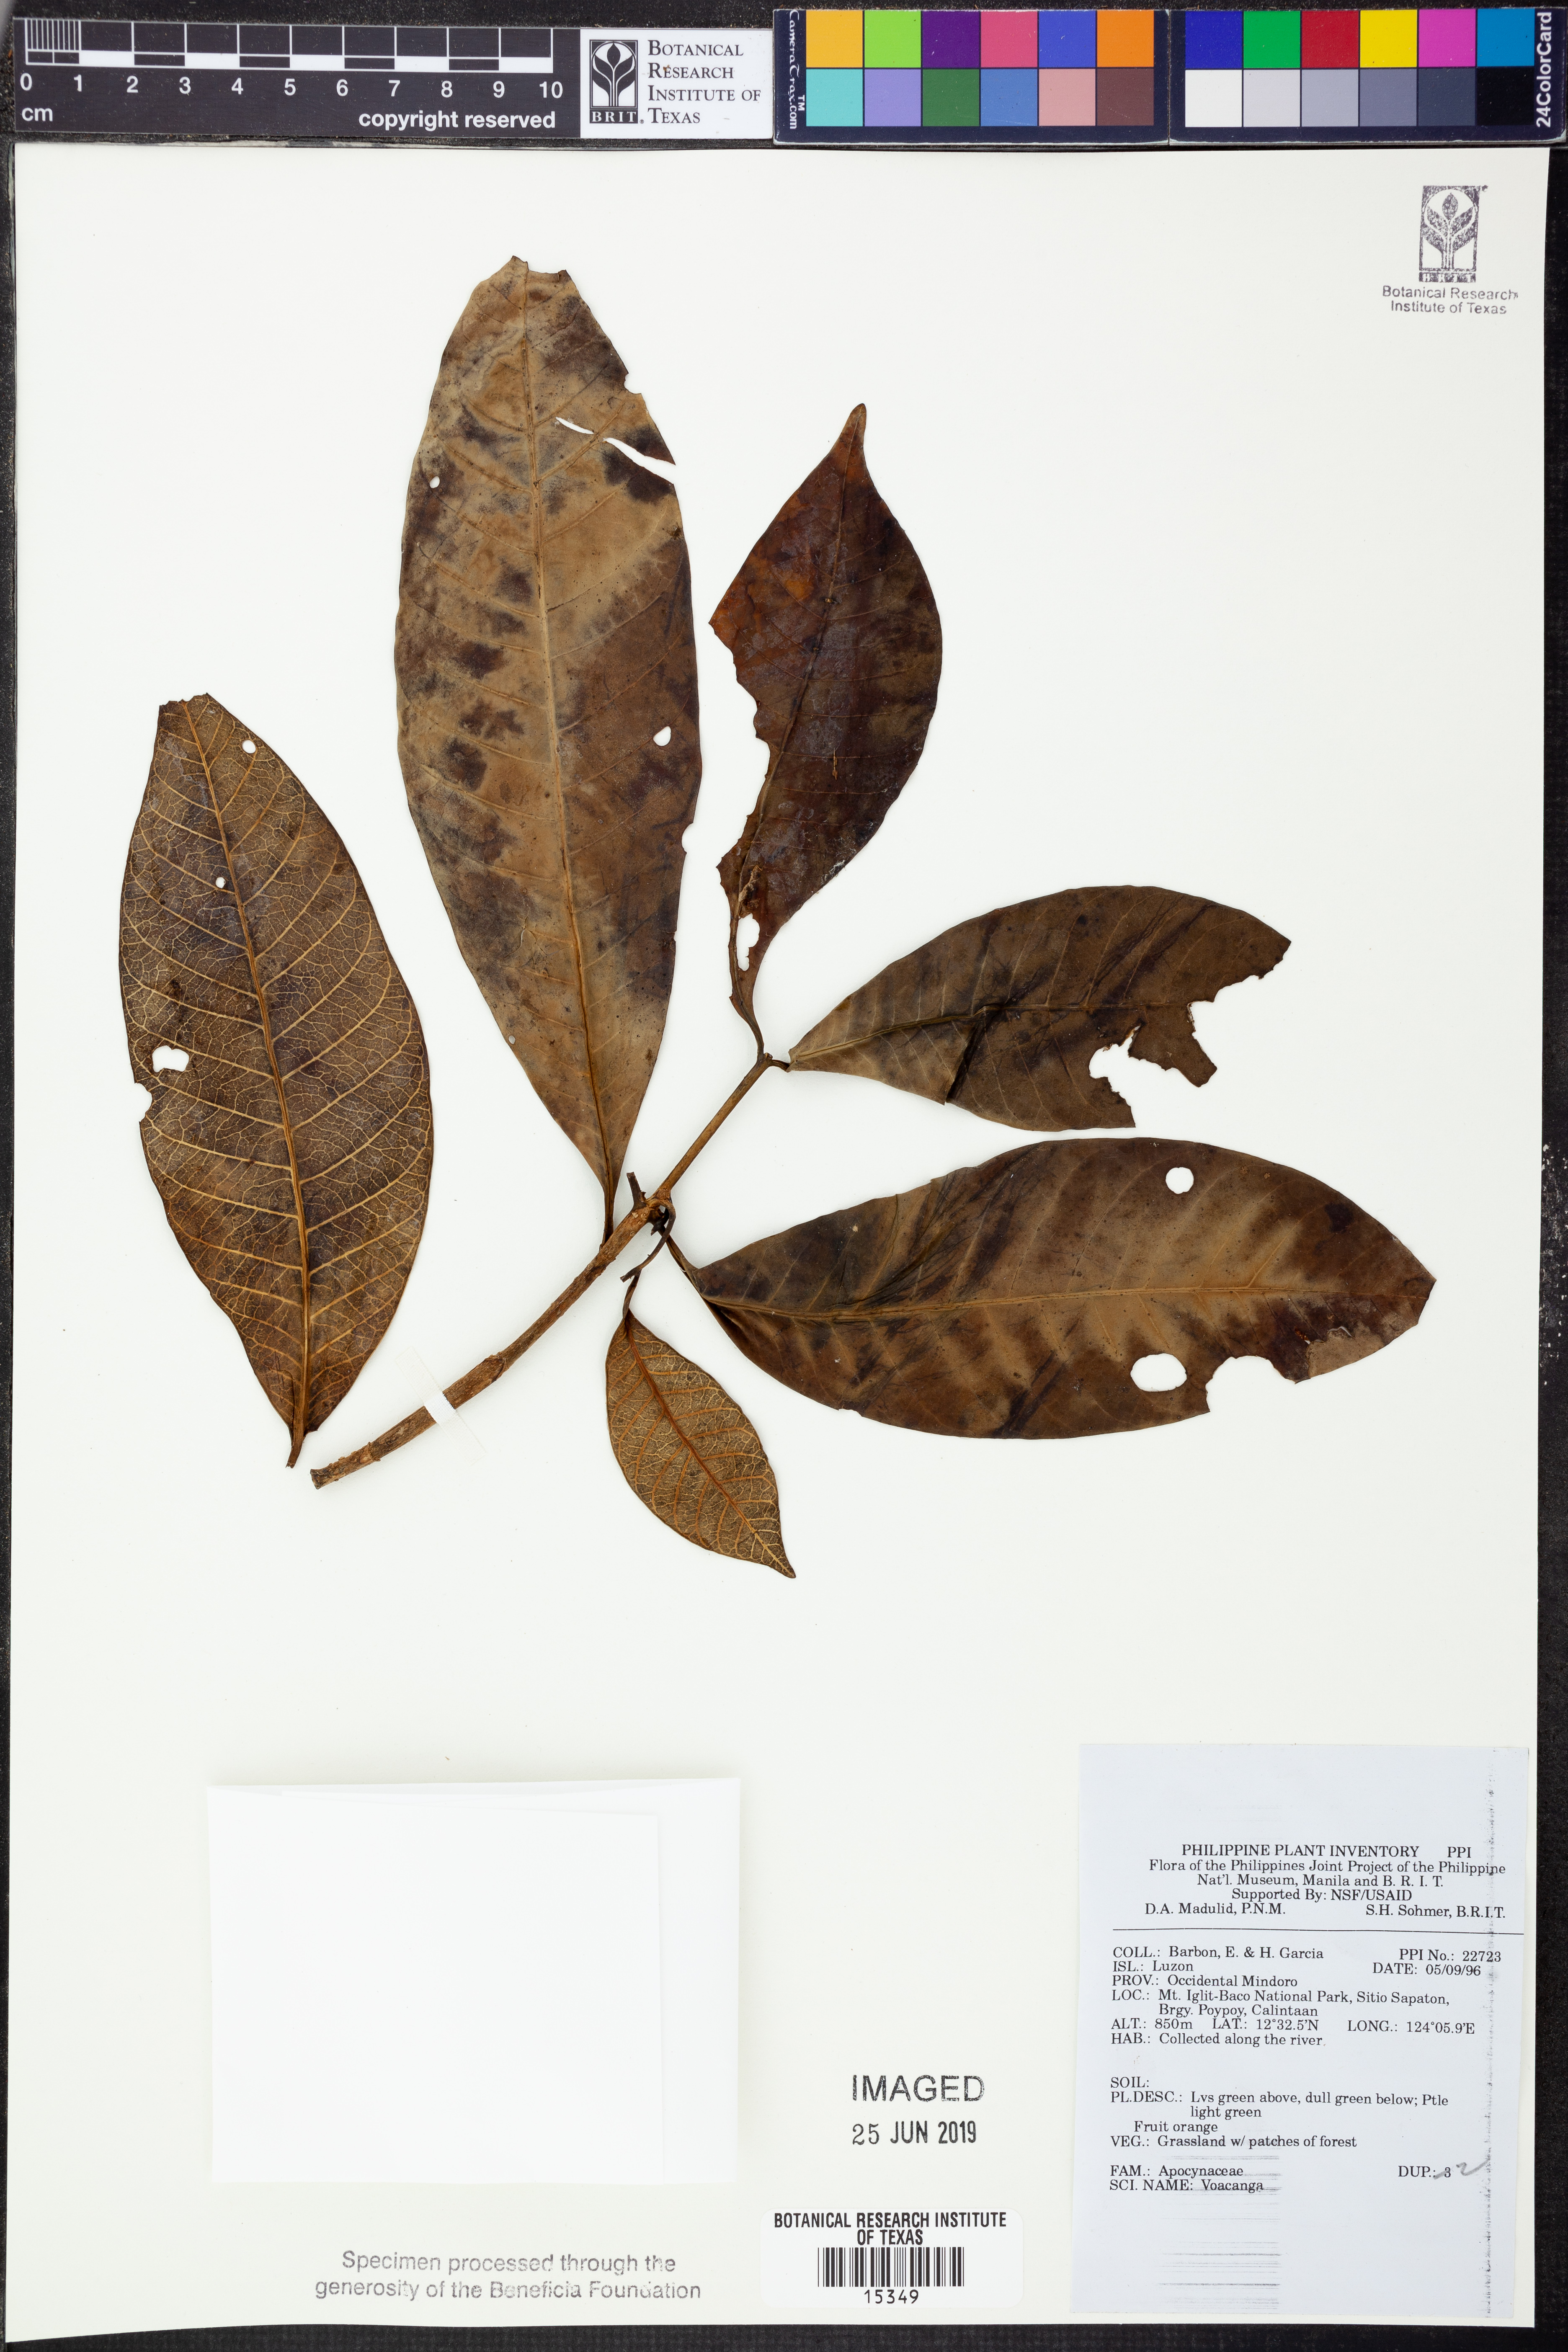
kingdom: Plantae
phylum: Tracheophyta
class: Magnoliopsida
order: Gentianales
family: Apocynaceae
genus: Voacanga
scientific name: Voacanga
